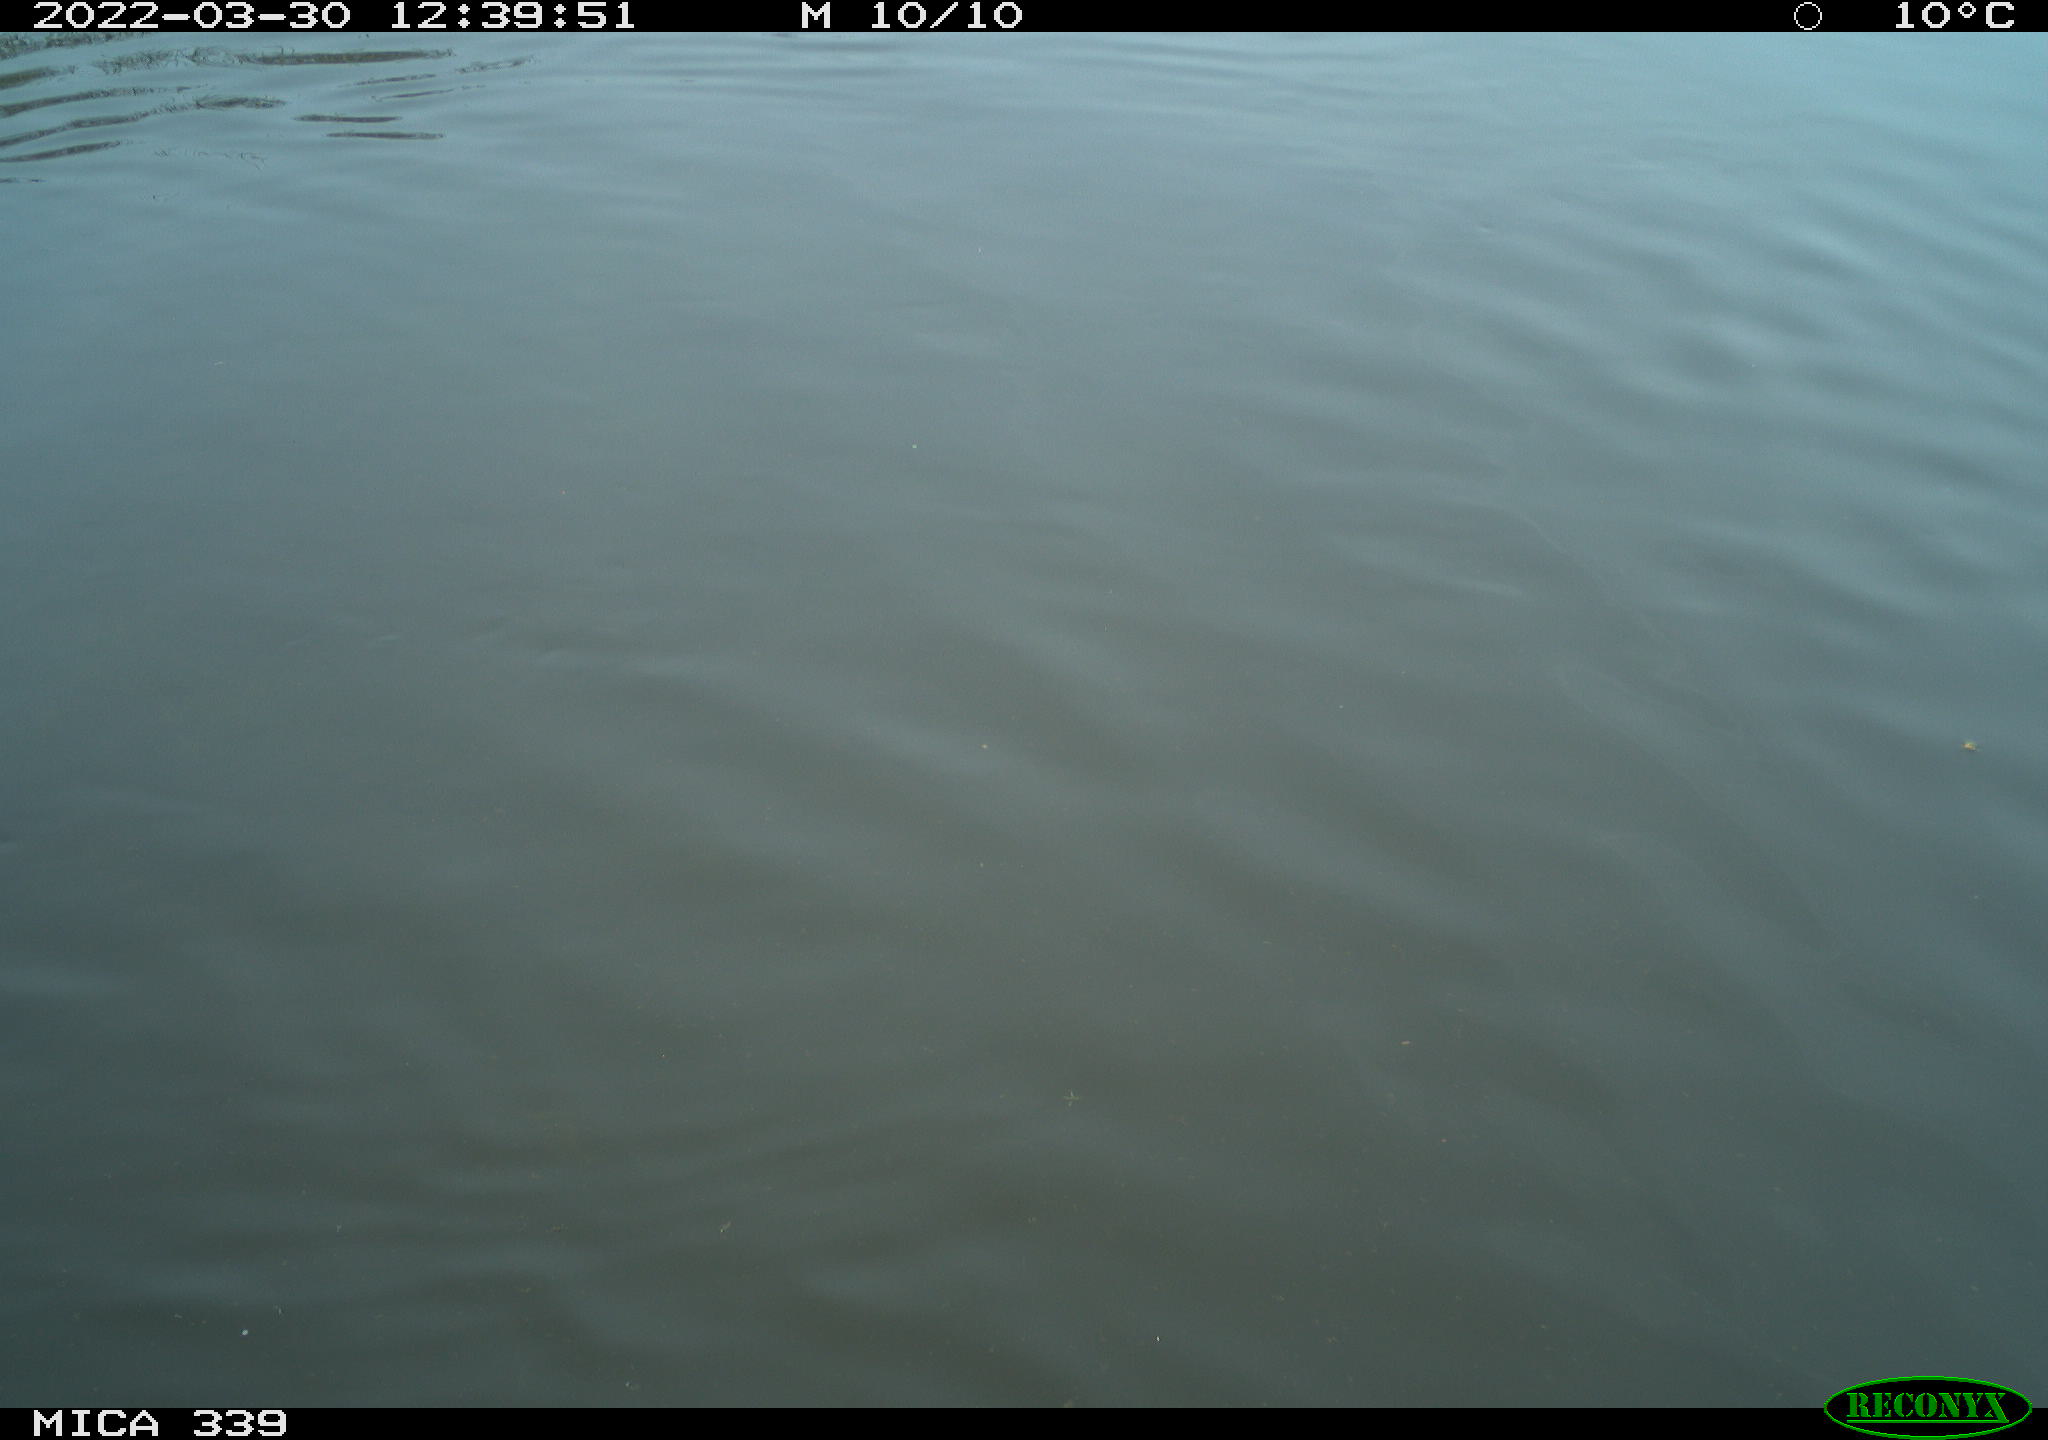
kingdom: Animalia
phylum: Chordata
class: Aves
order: Anseriformes
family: Anatidae
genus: Anas
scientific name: Anas platyrhynchos
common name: Mallard
